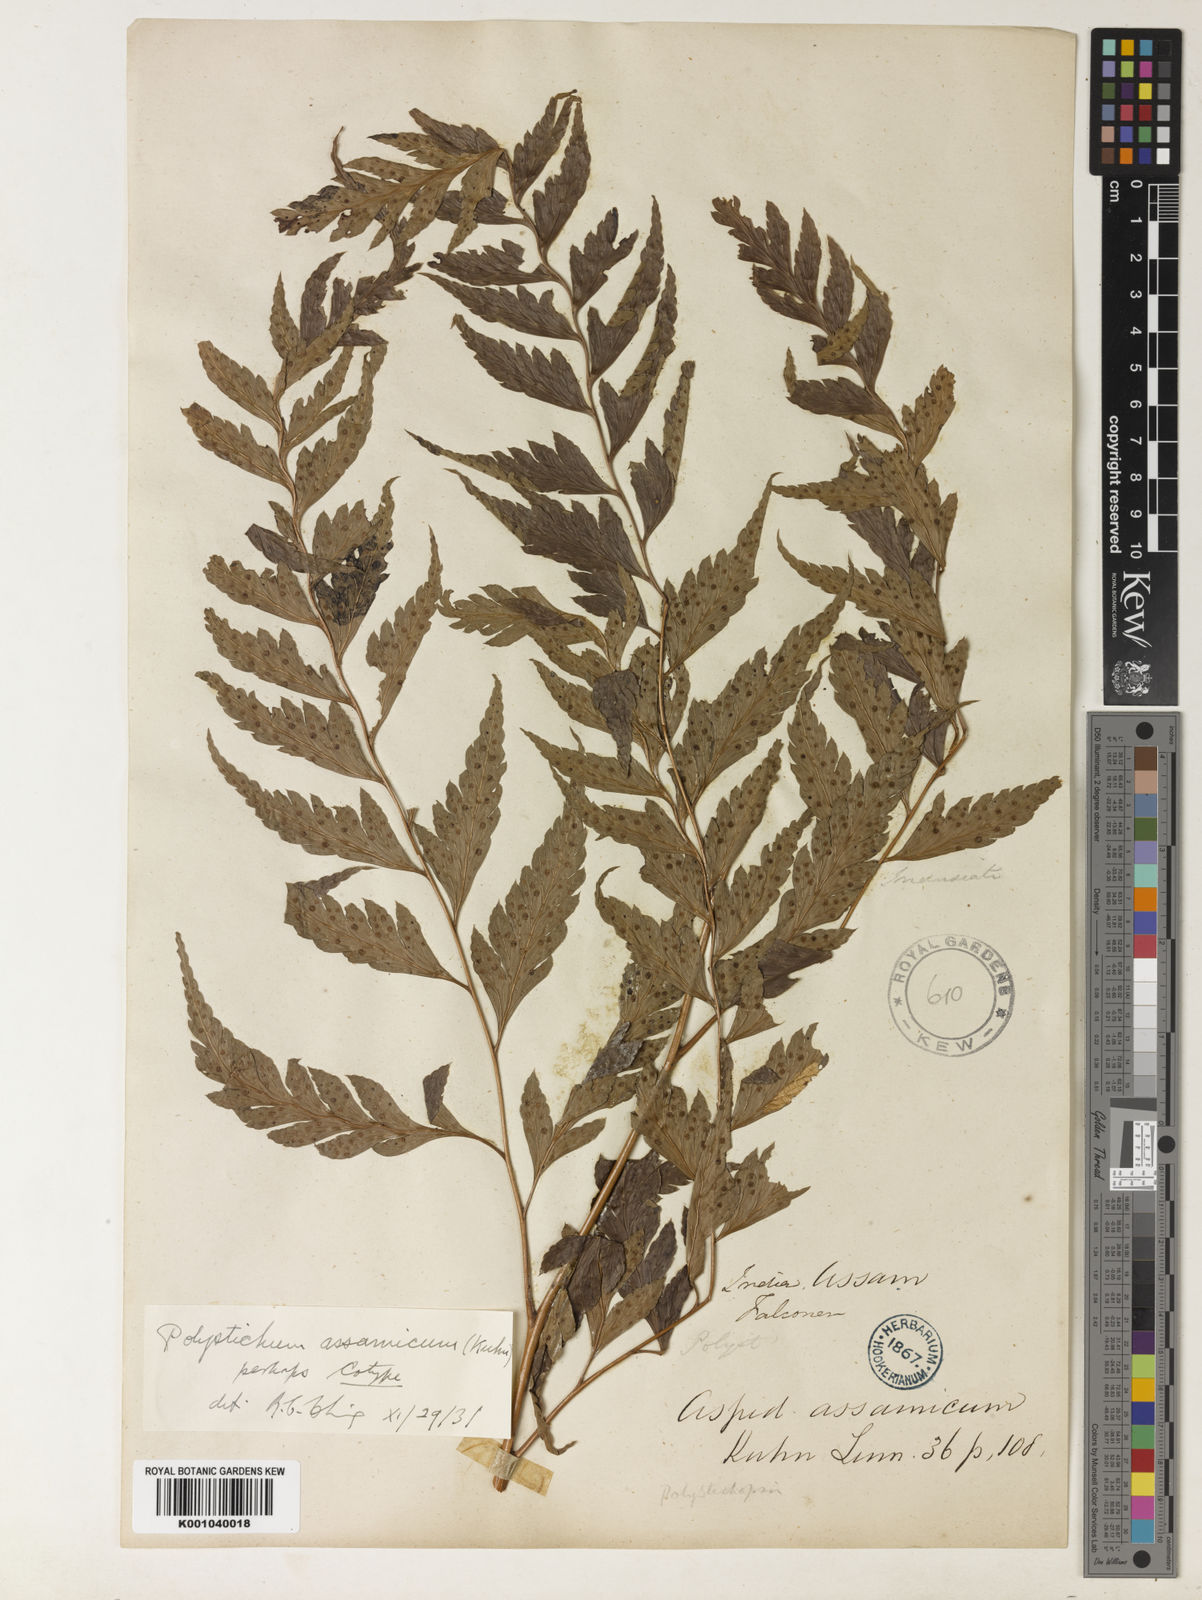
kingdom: Plantae
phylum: Tracheophyta
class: Polypodiopsida
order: Polypodiales
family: Dryopteridaceae
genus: Arachniodes
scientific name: Arachniodes assamica
